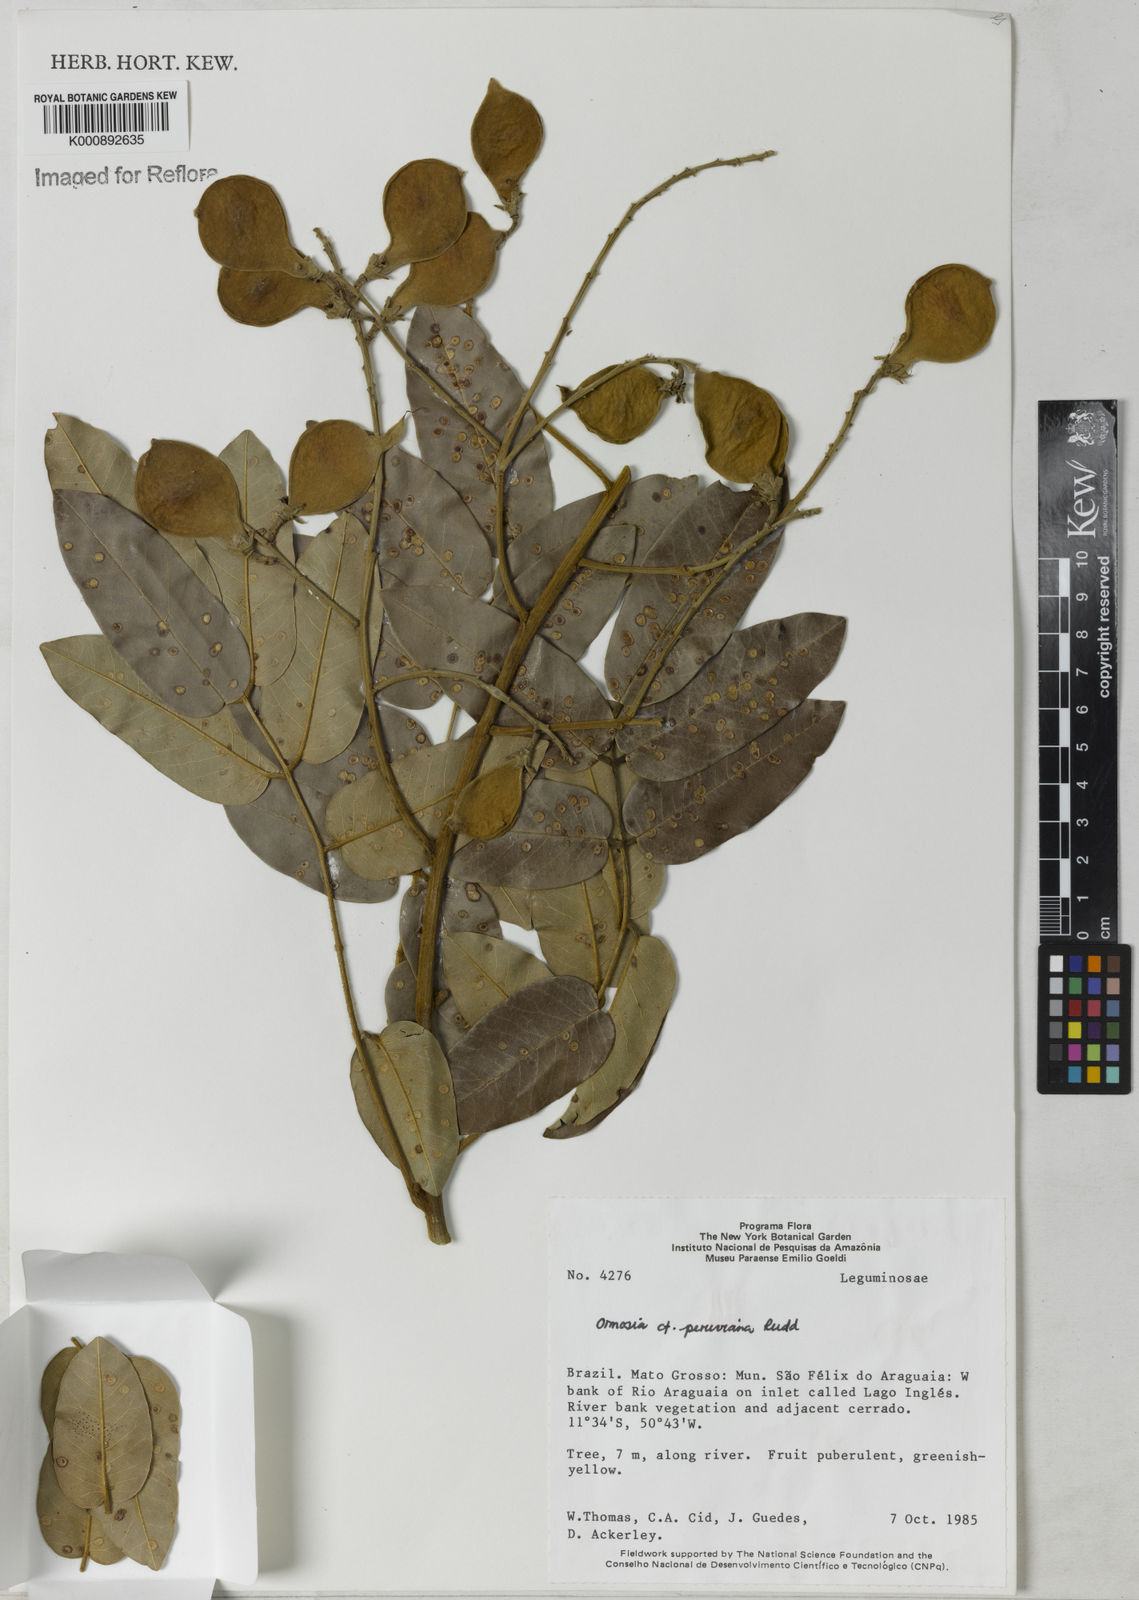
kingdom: Plantae
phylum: Tracheophyta
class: Magnoliopsida
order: Fabales
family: Fabaceae
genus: Ormosia
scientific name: Ormosia
